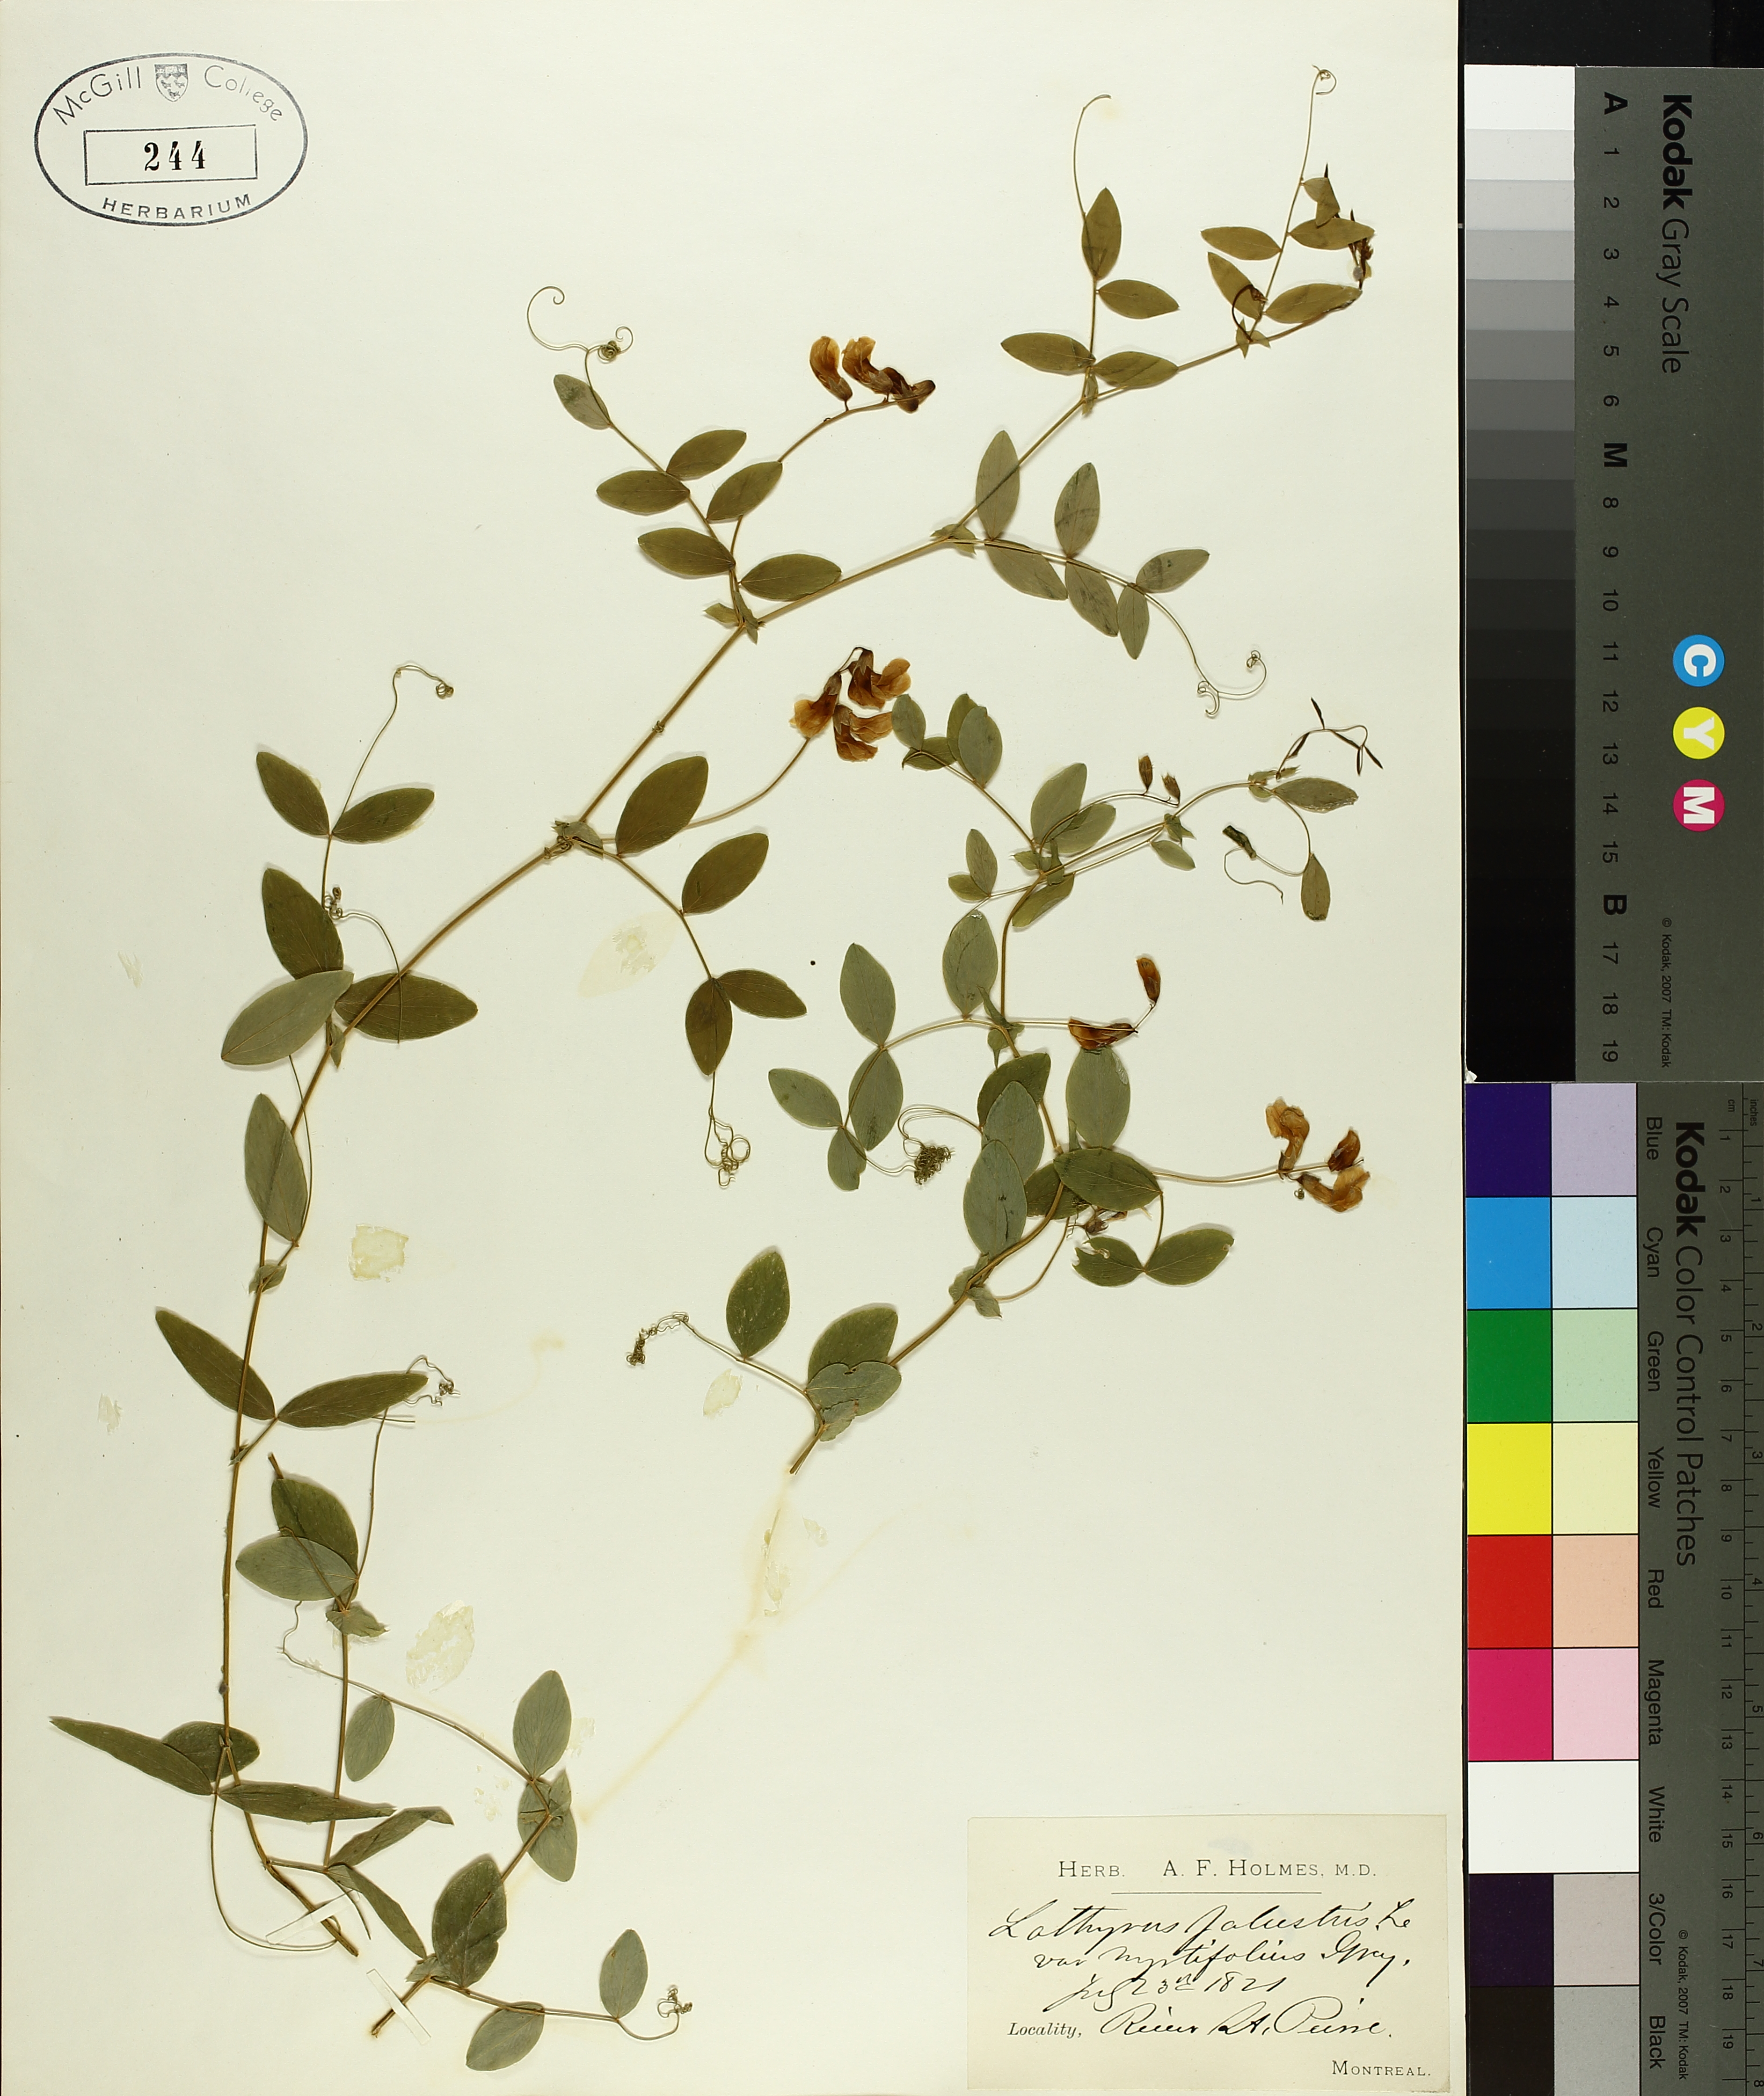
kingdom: Plantae
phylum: Tracheophyta
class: Magnoliopsida
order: Fabales
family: Fabaceae
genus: Lathyrus
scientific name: Lathyrus palustris
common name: Marsh pea
